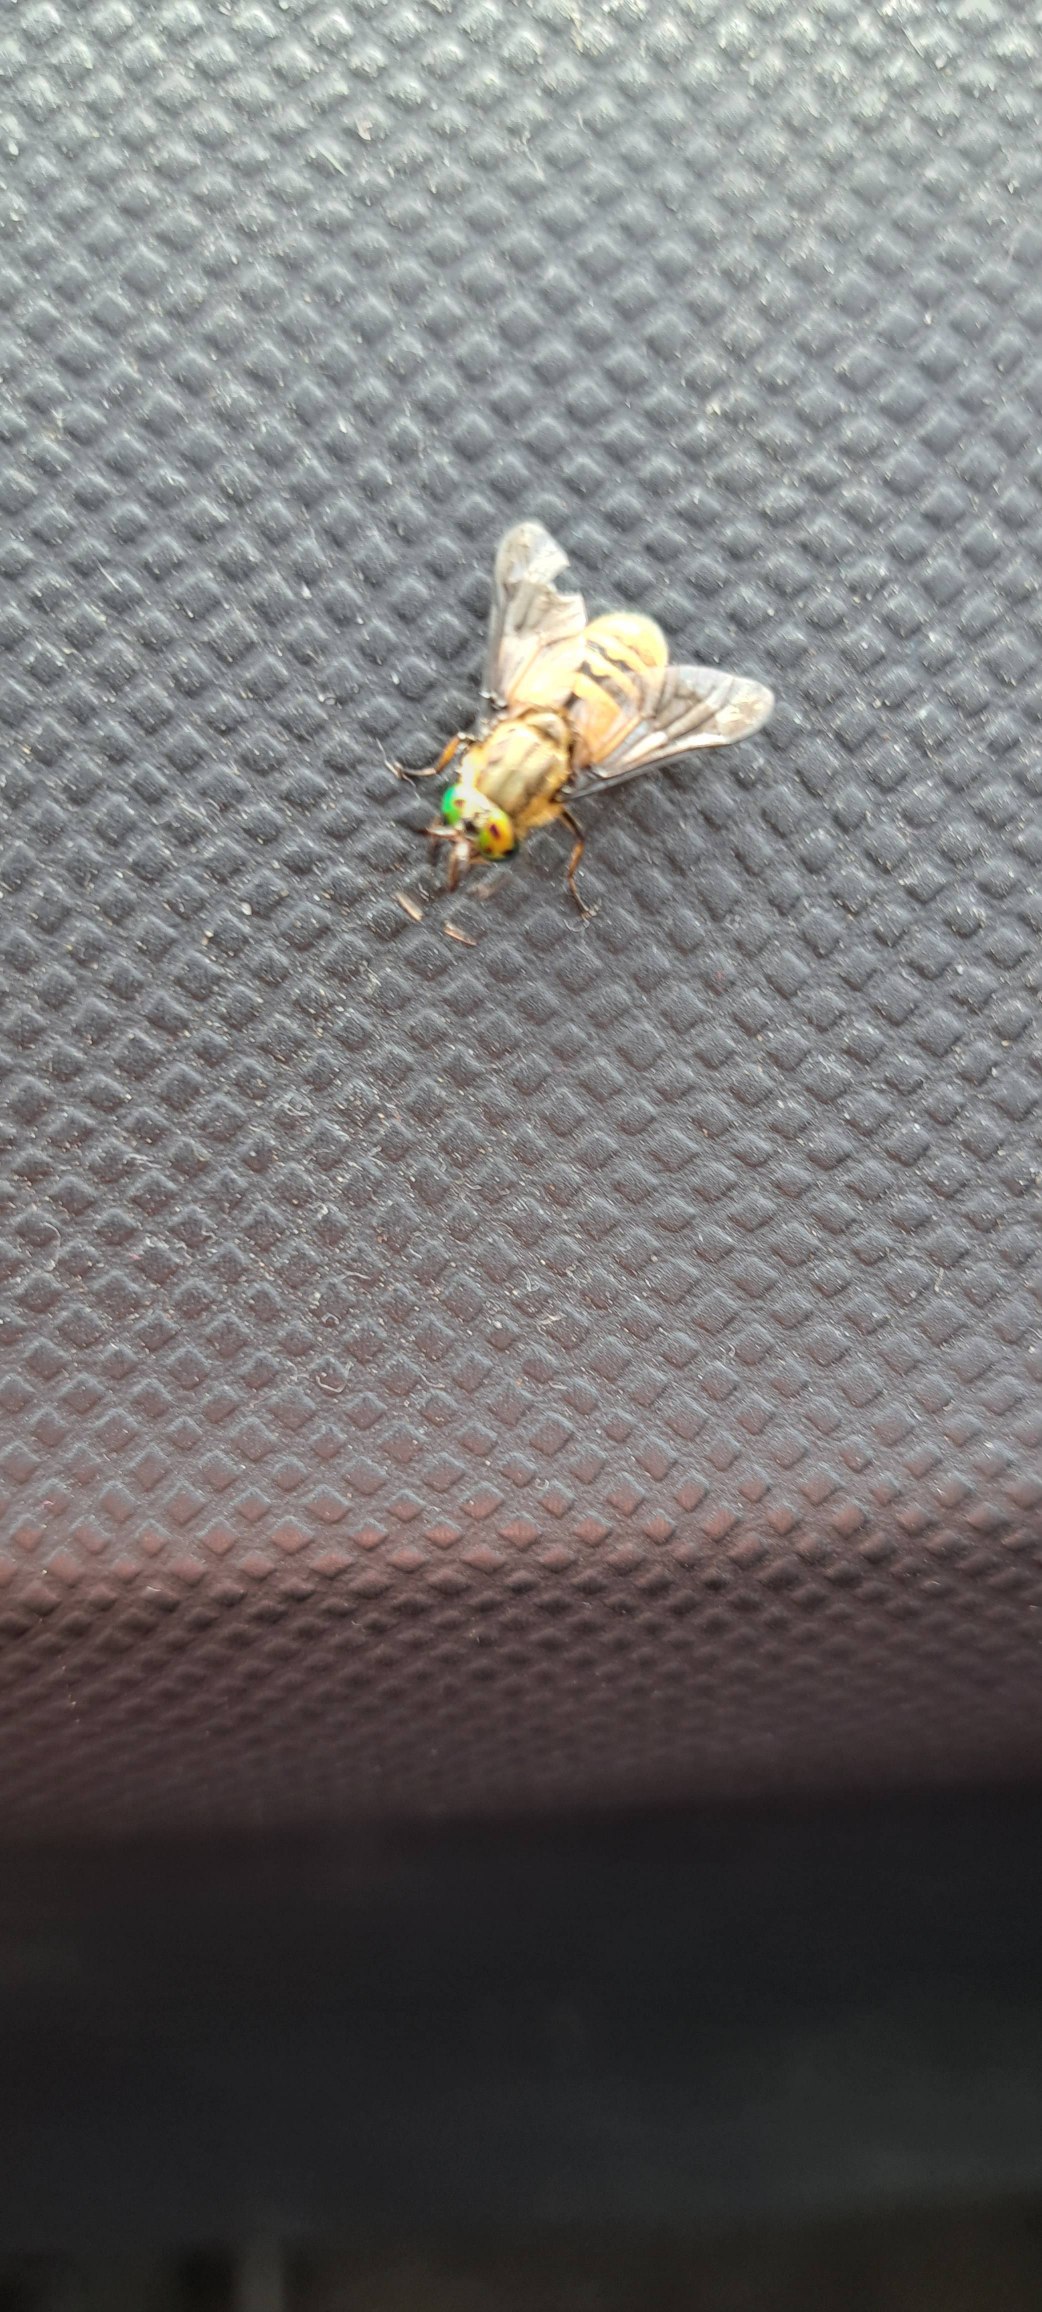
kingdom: Animalia
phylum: Arthropoda
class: Insecta
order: Diptera
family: Tabanidae
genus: Chrysops
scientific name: Chrysops viduatus
